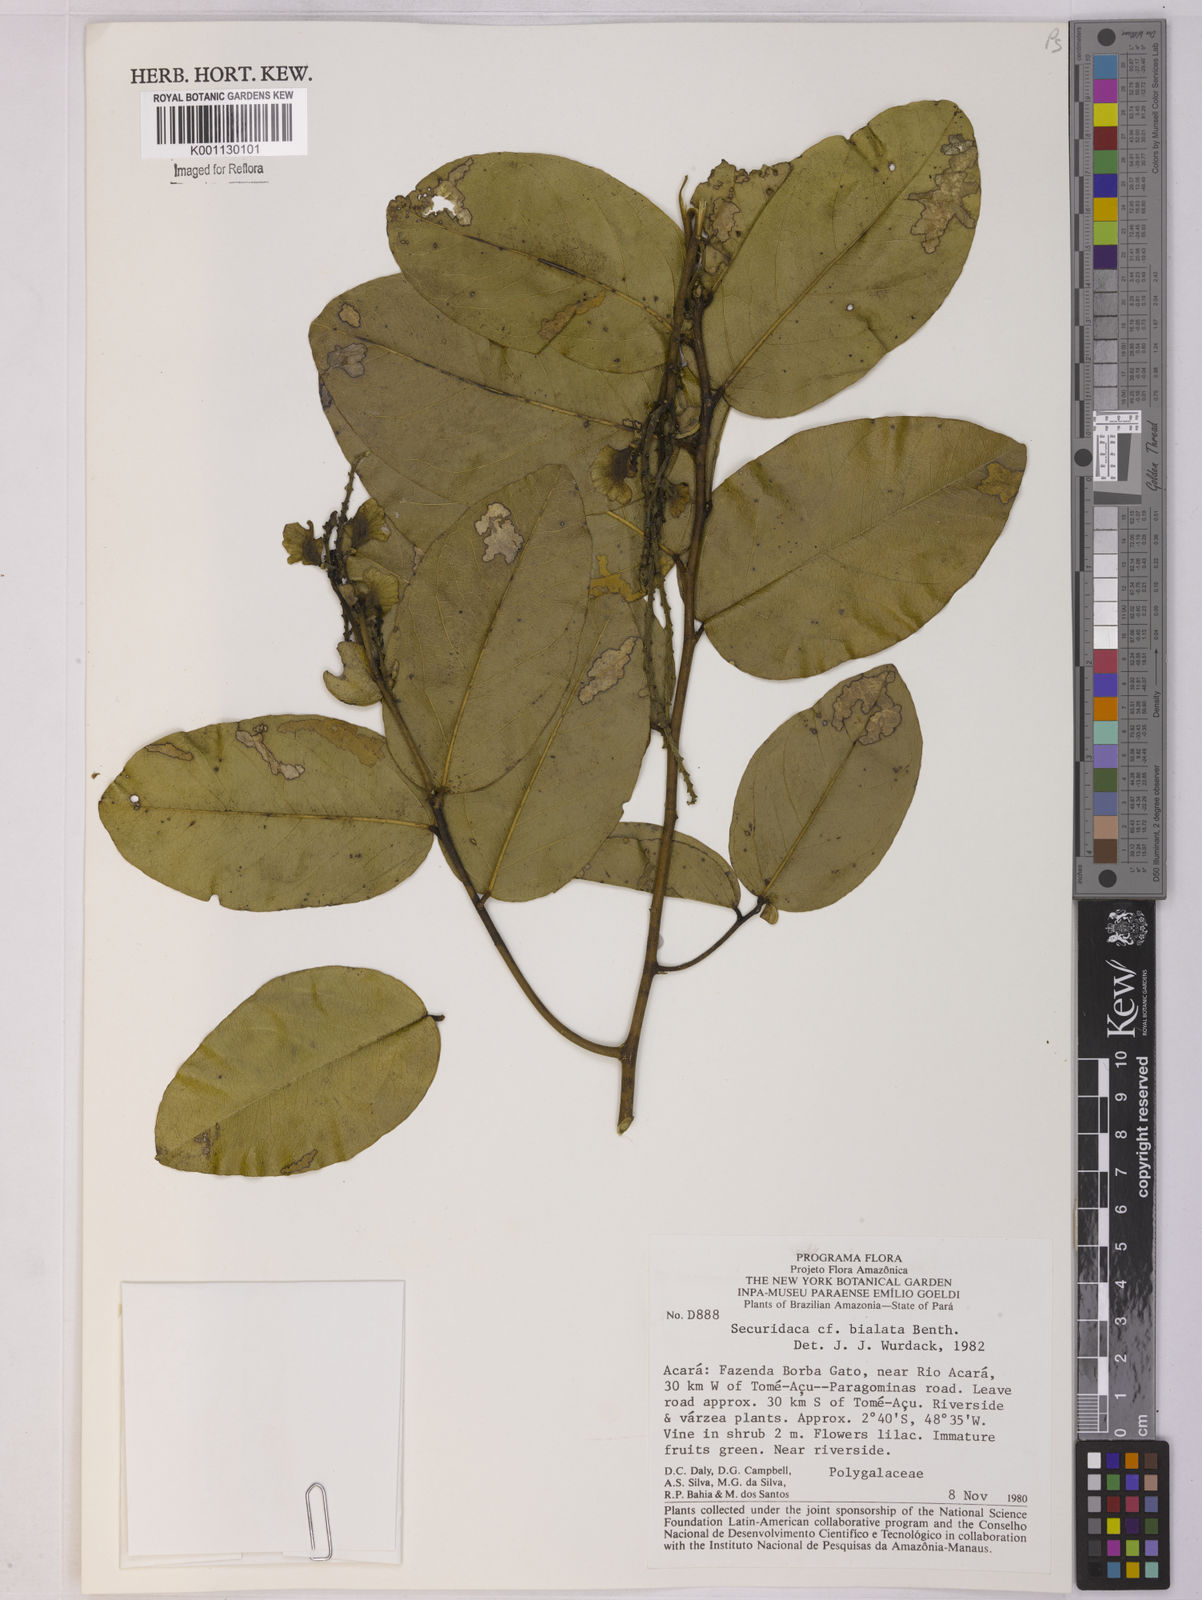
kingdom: Plantae
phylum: Tracheophyta
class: Magnoliopsida
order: Fabales
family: Polygalaceae
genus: Securidaca
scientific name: Securidaca bialata
